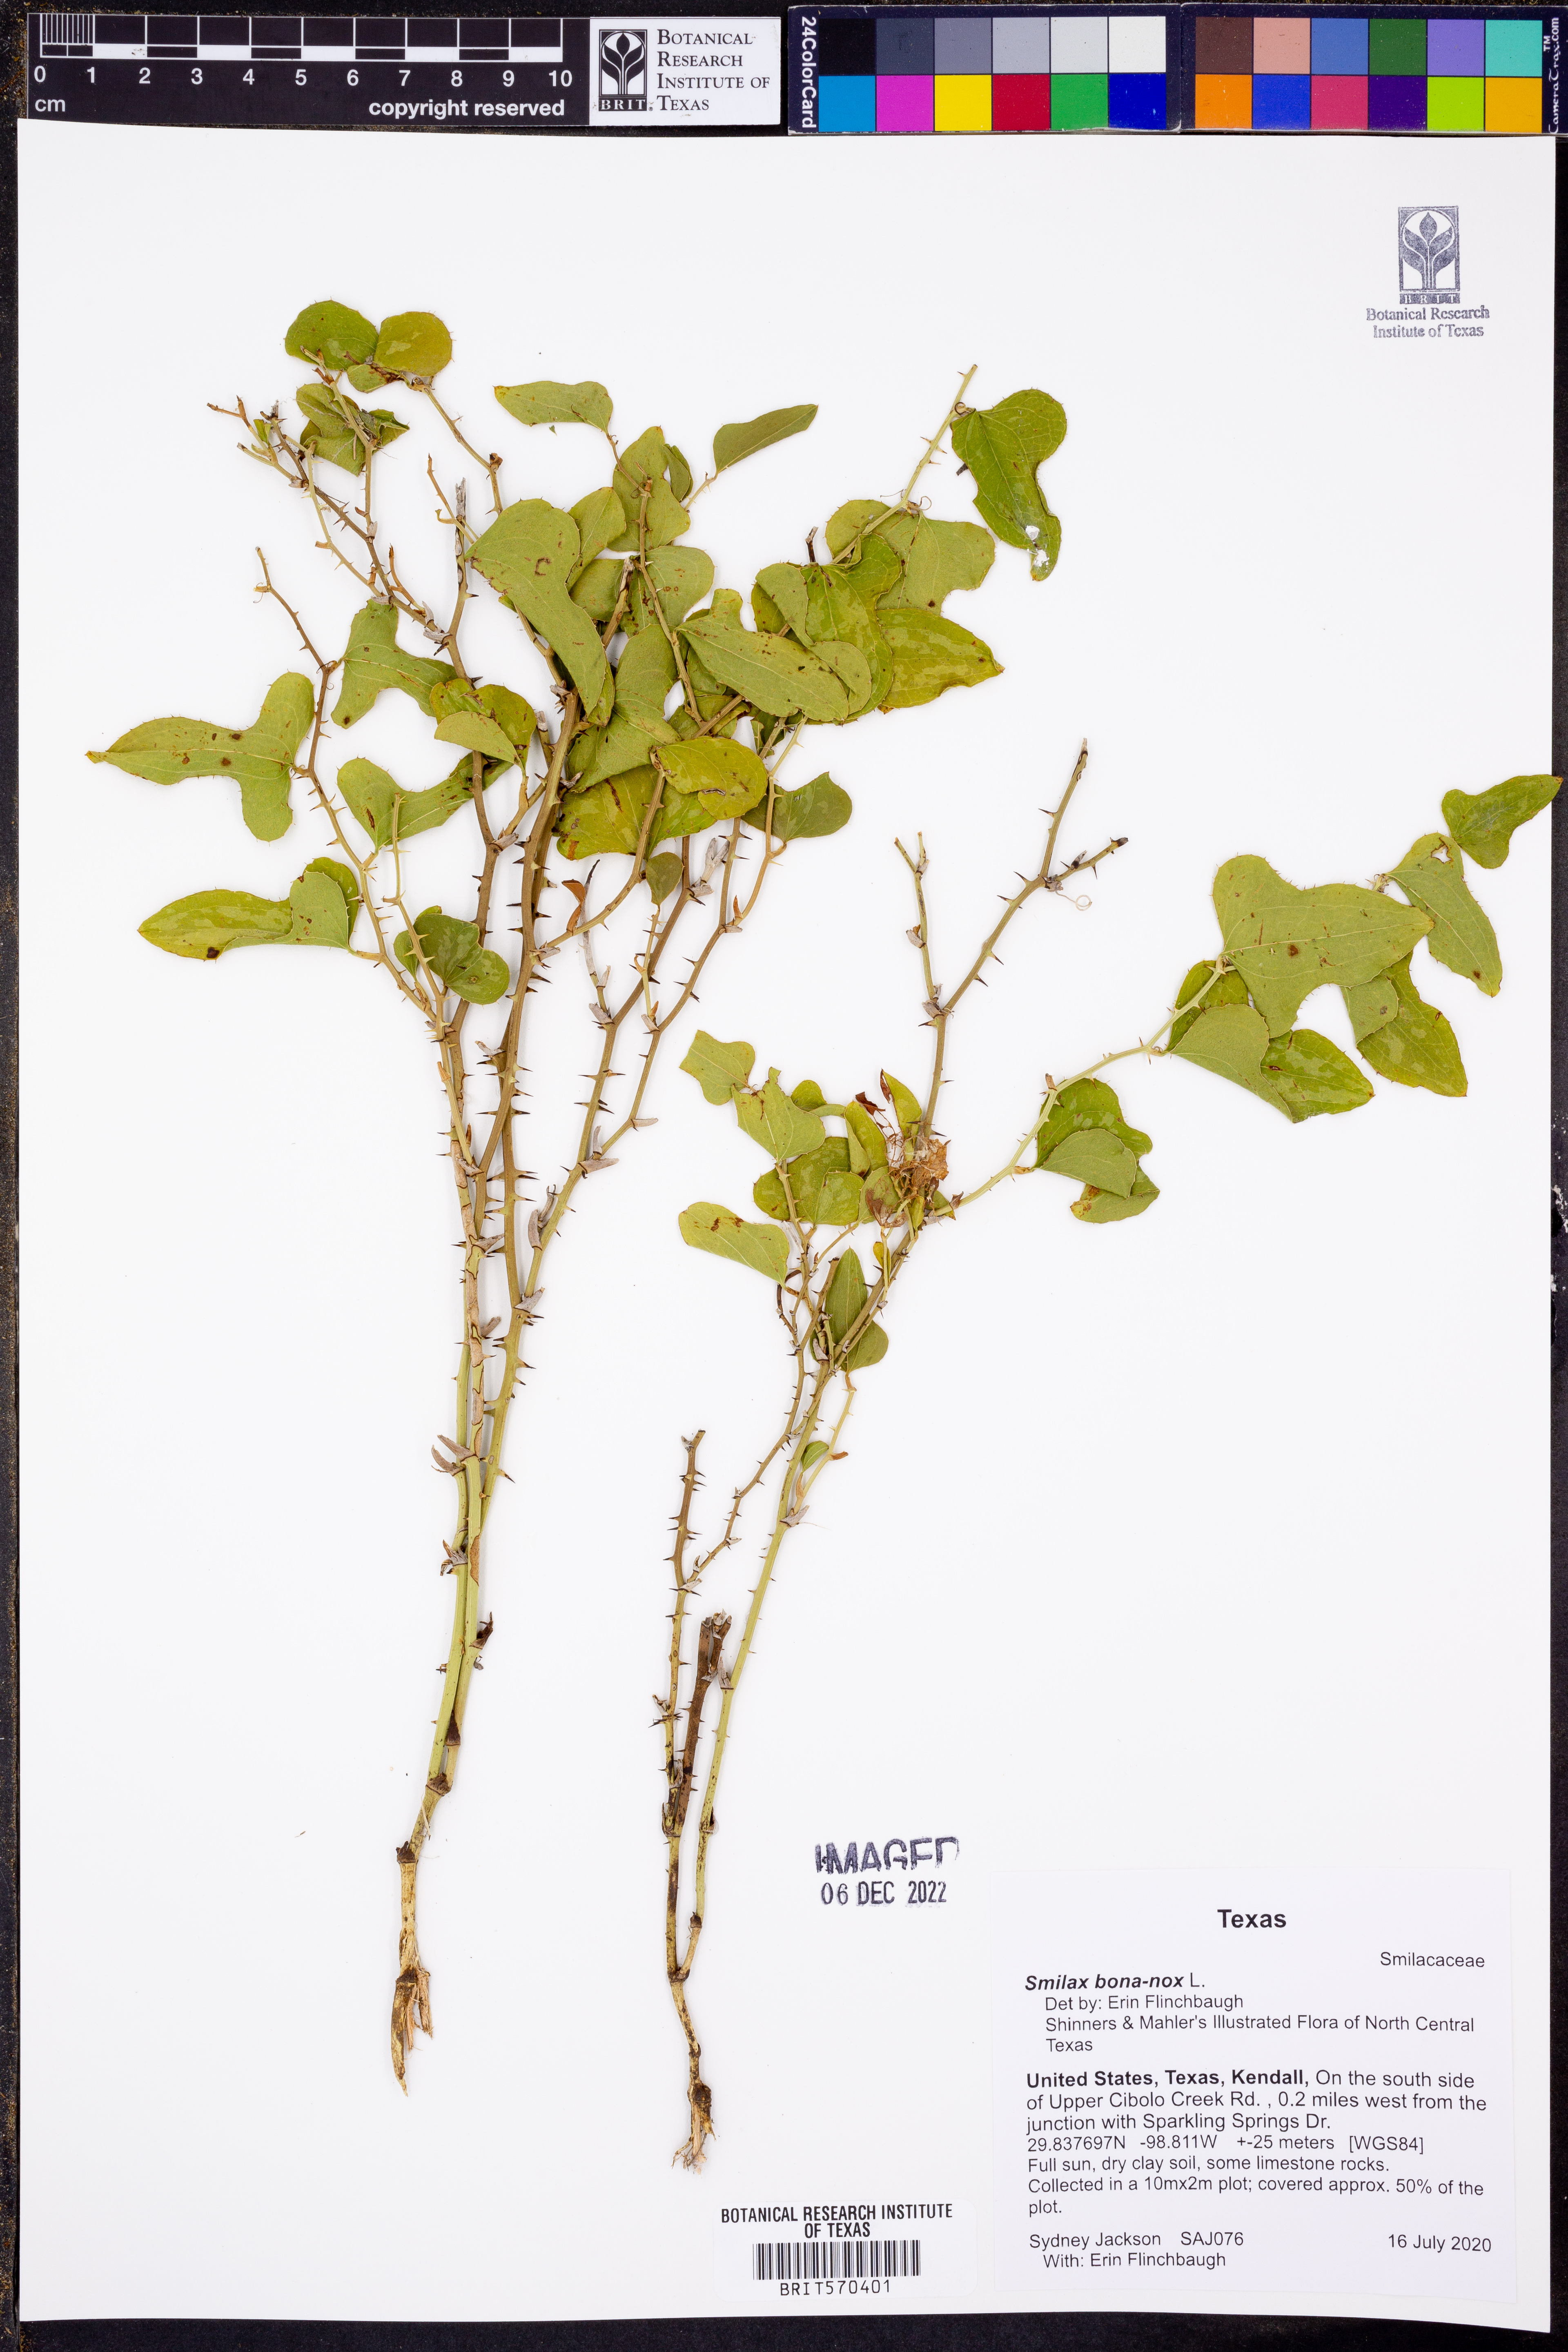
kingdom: Plantae
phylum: Tracheophyta
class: Liliopsida
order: Liliales
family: Smilacaceae
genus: Smilax
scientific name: Smilax bona-nox
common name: Catbrier
